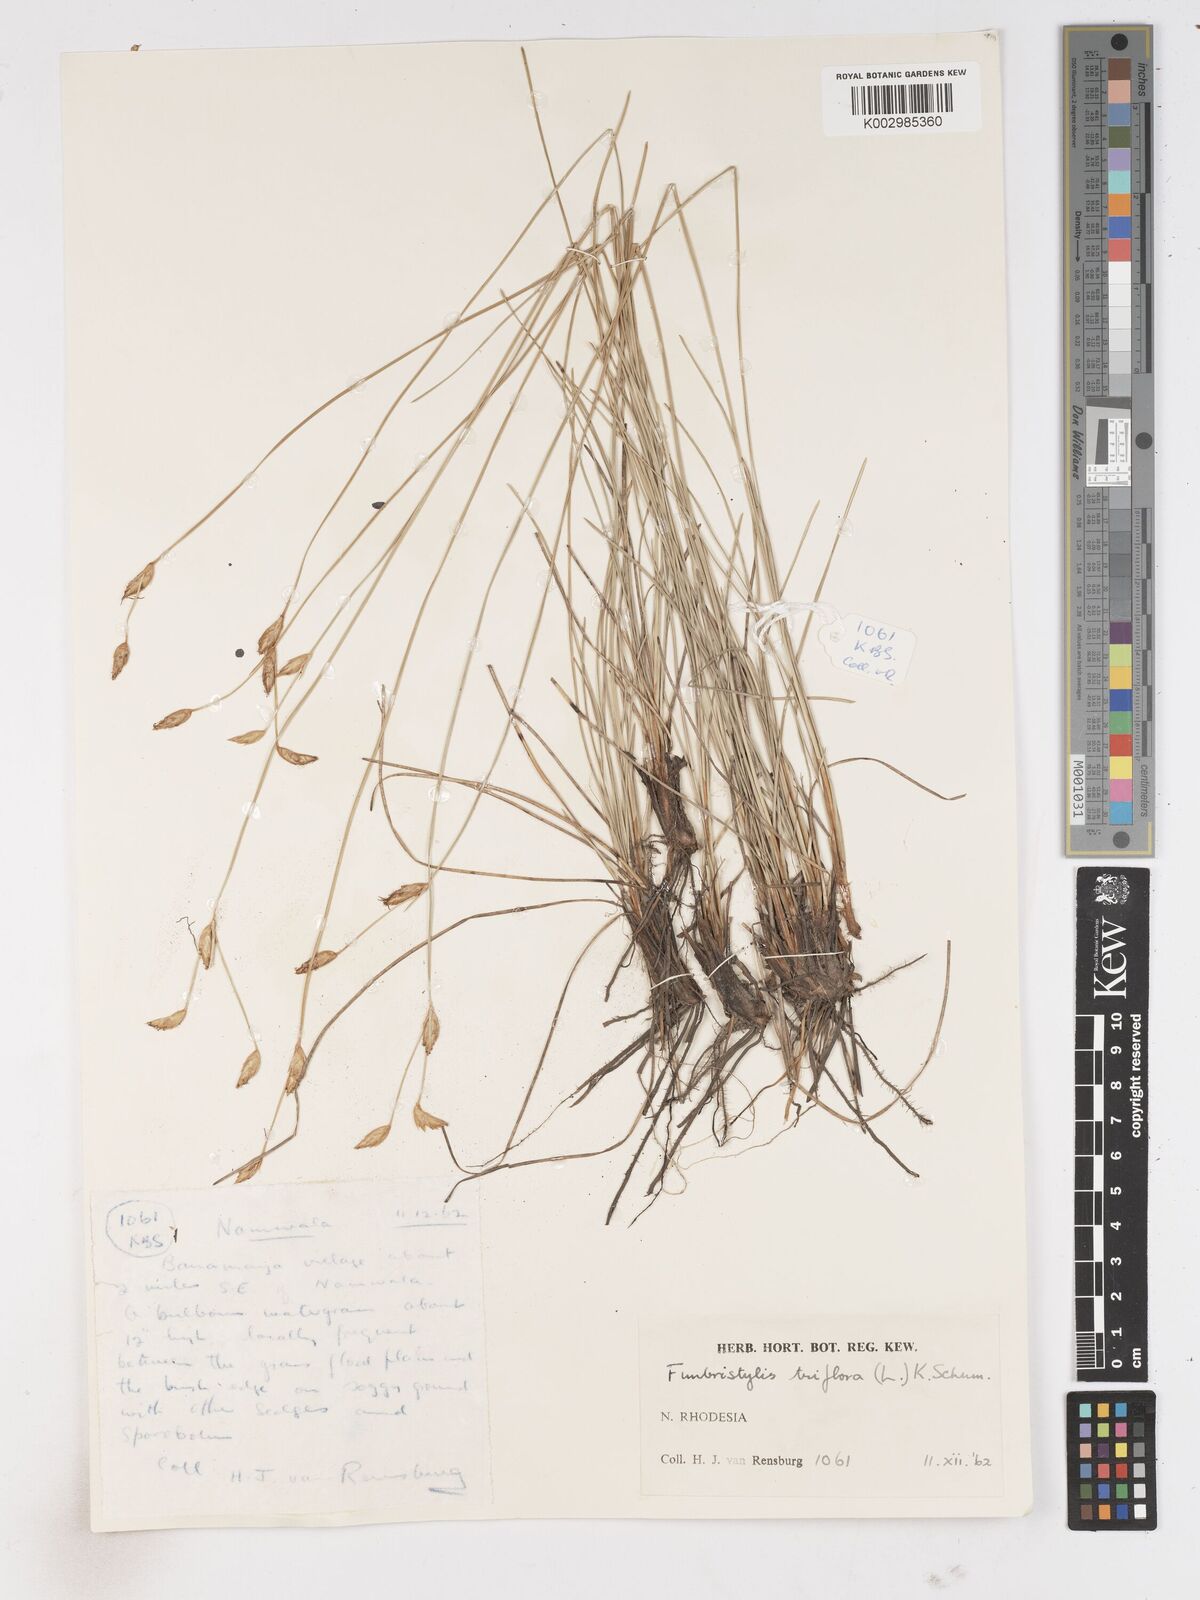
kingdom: Plantae
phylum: Tracheophyta
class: Liliopsida
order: Poales
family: Cyperaceae
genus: Abildgaardia
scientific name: Abildgaardia triflora
